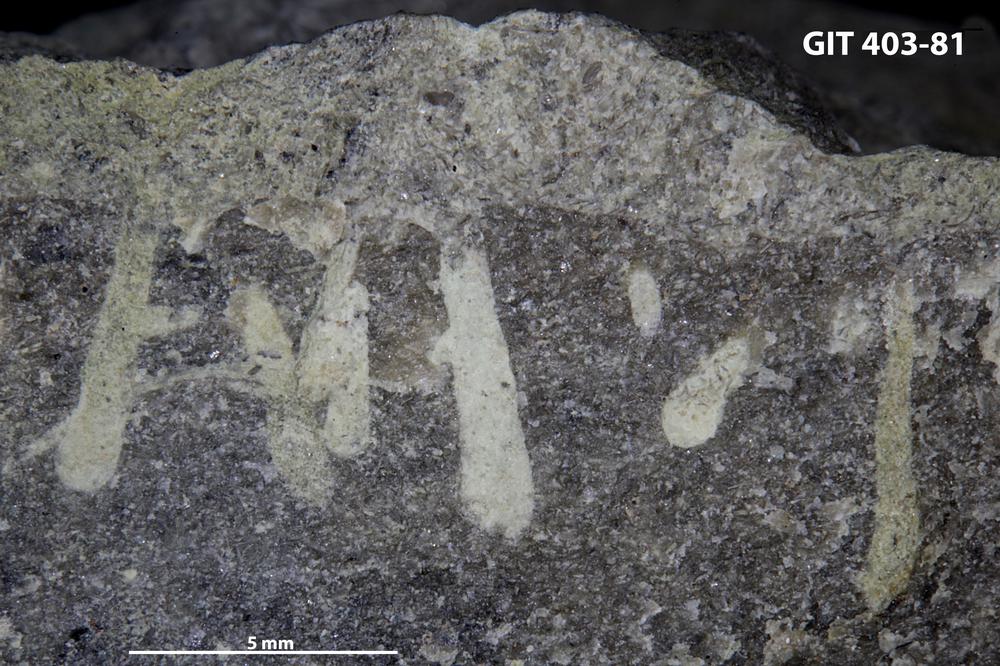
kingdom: Animalia
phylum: Sipuncula
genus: Trypanites
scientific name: Trypanites
